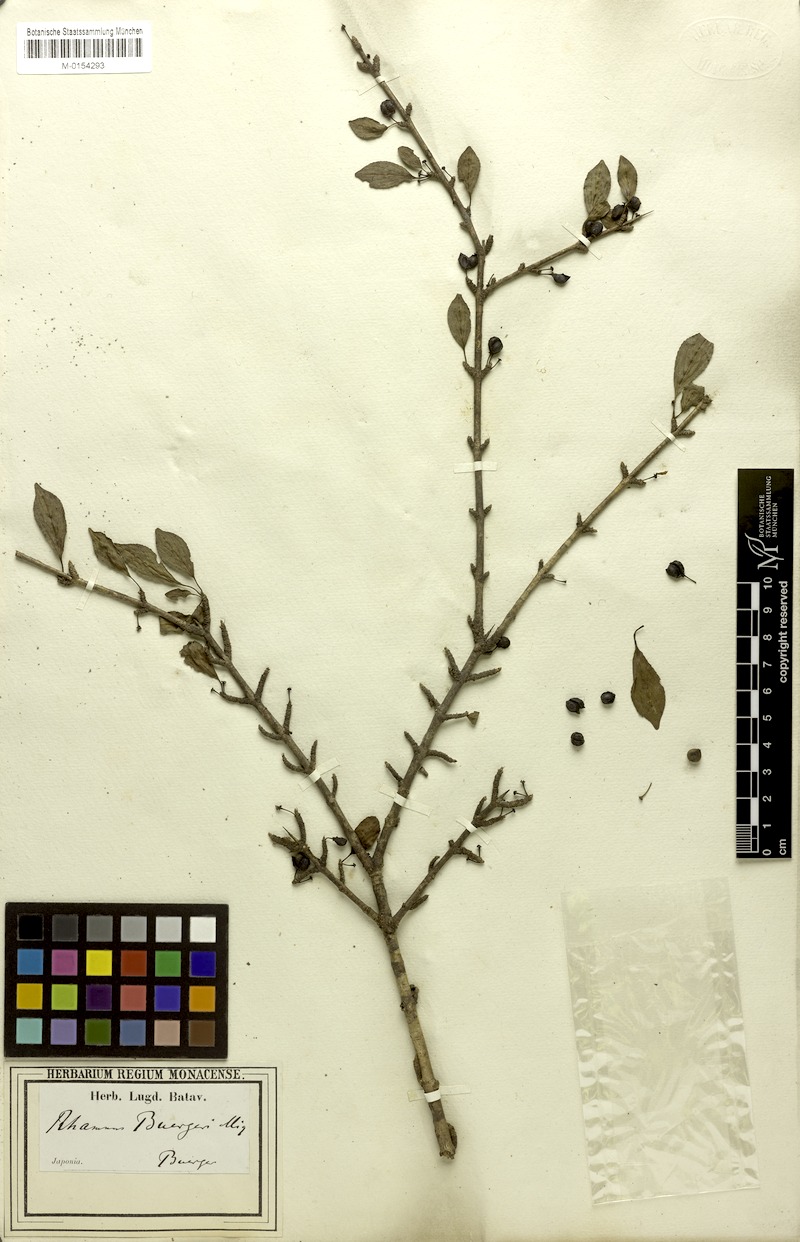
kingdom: Plantae
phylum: Tracheophyta
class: Magnoliopsida
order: Rosales
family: Rhamnaceae
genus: Rhamnus
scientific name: Rhamnus japonica
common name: Japanese buckthorn
